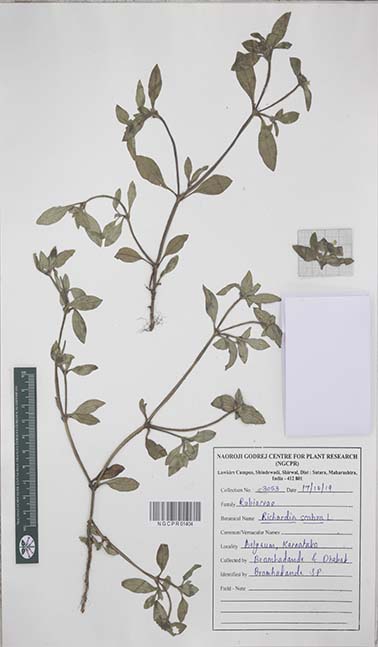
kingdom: Plantae
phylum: Tracheophyta
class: Magnoliopsida
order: Gentianales
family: Rubiaceae
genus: Richardia
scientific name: Richardia scabra
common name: Rough mexican clover
